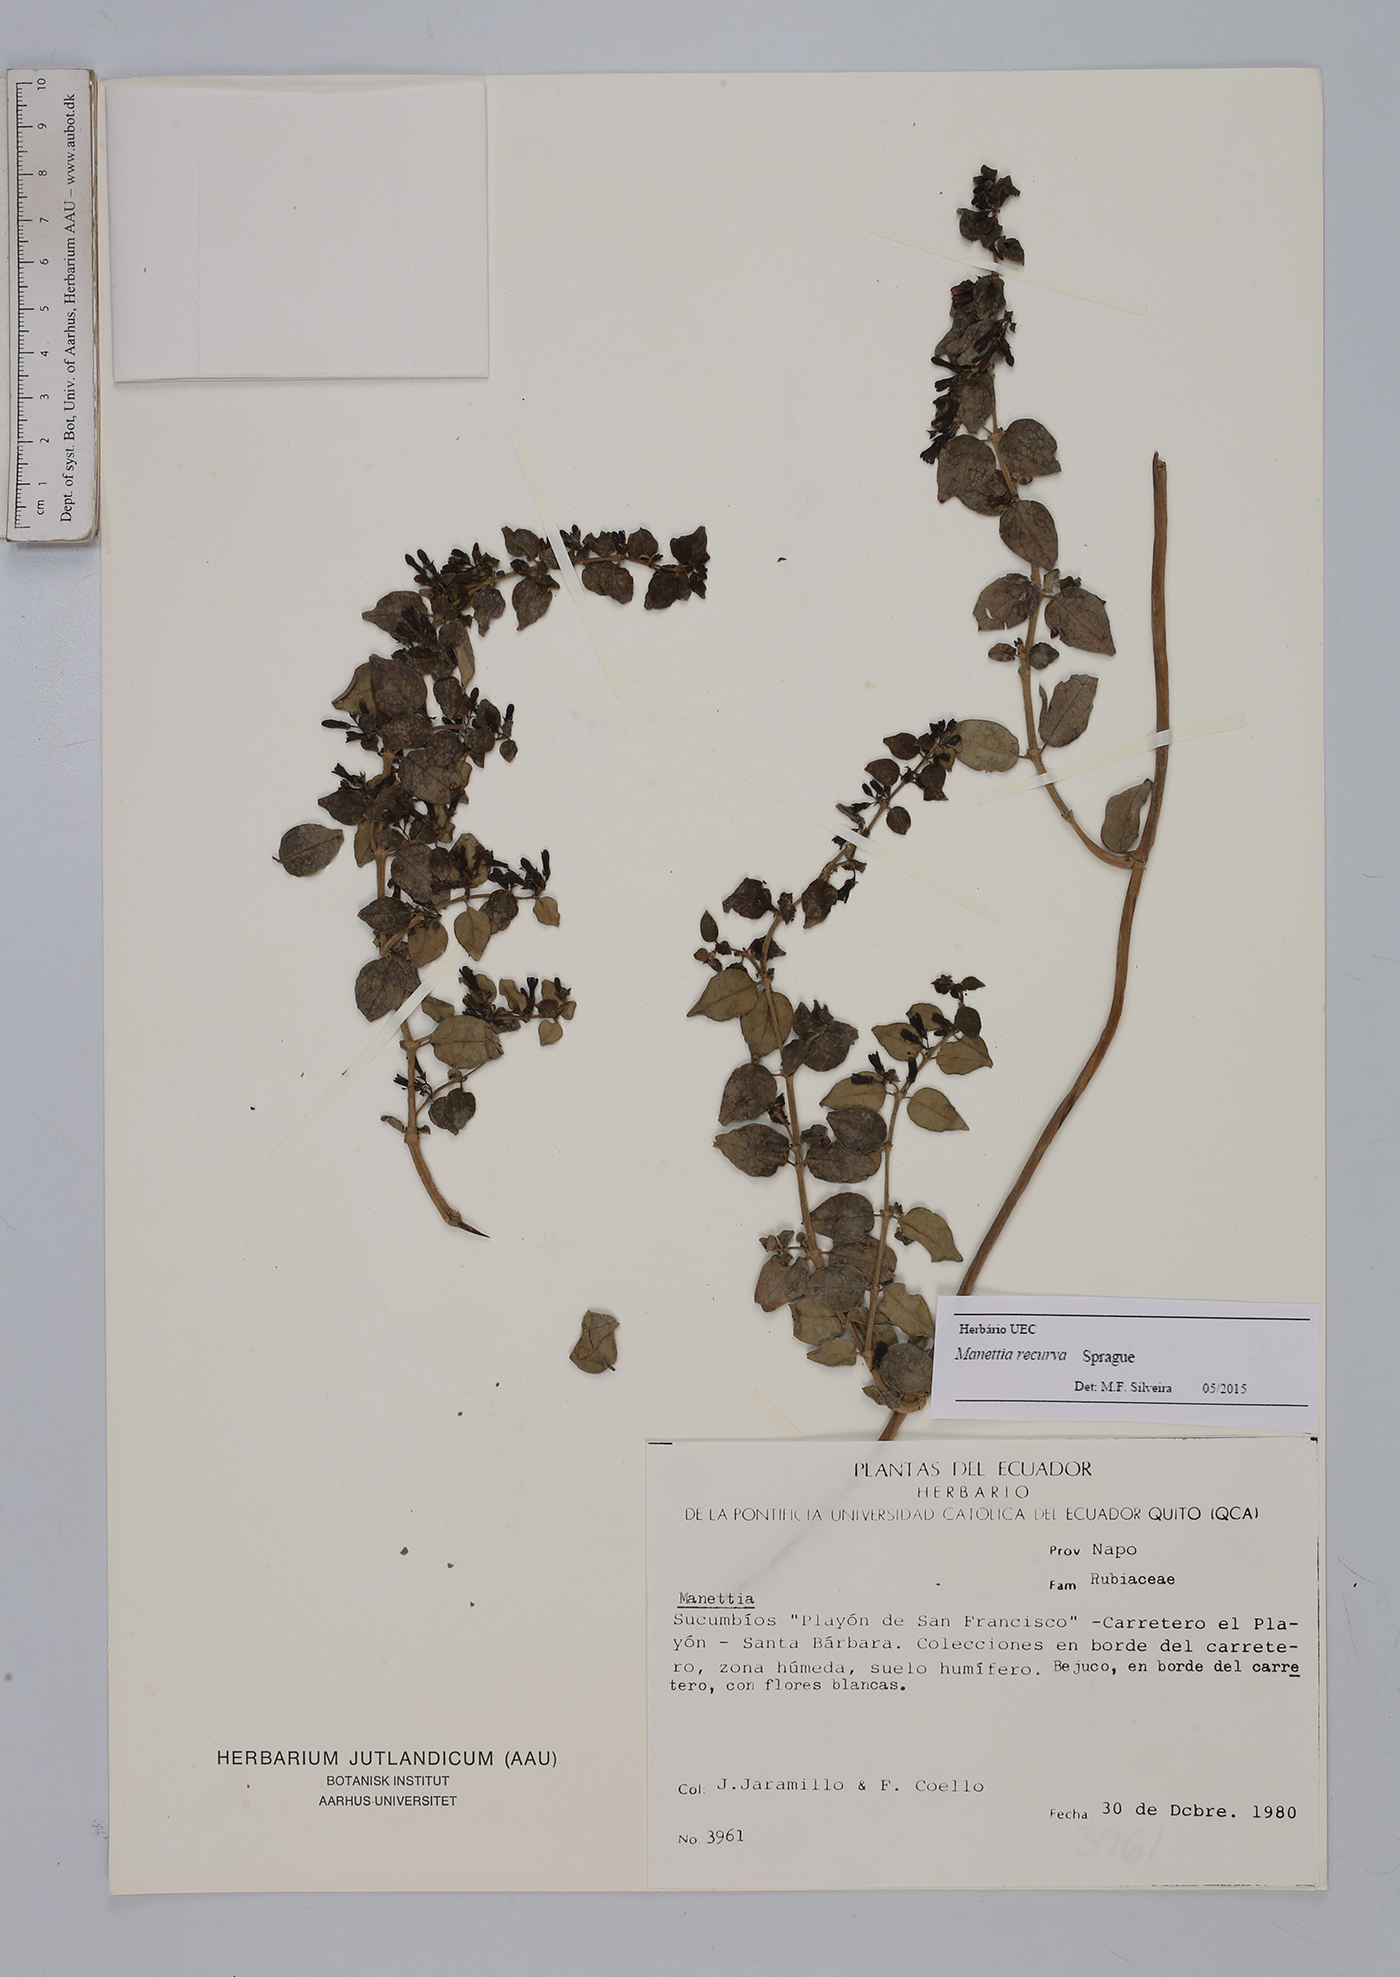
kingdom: Plantae
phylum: Tracheophyta
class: Magnoliopsida
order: Gentianales
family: Rubiaceae
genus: Manettia
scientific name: Manettia recurva
